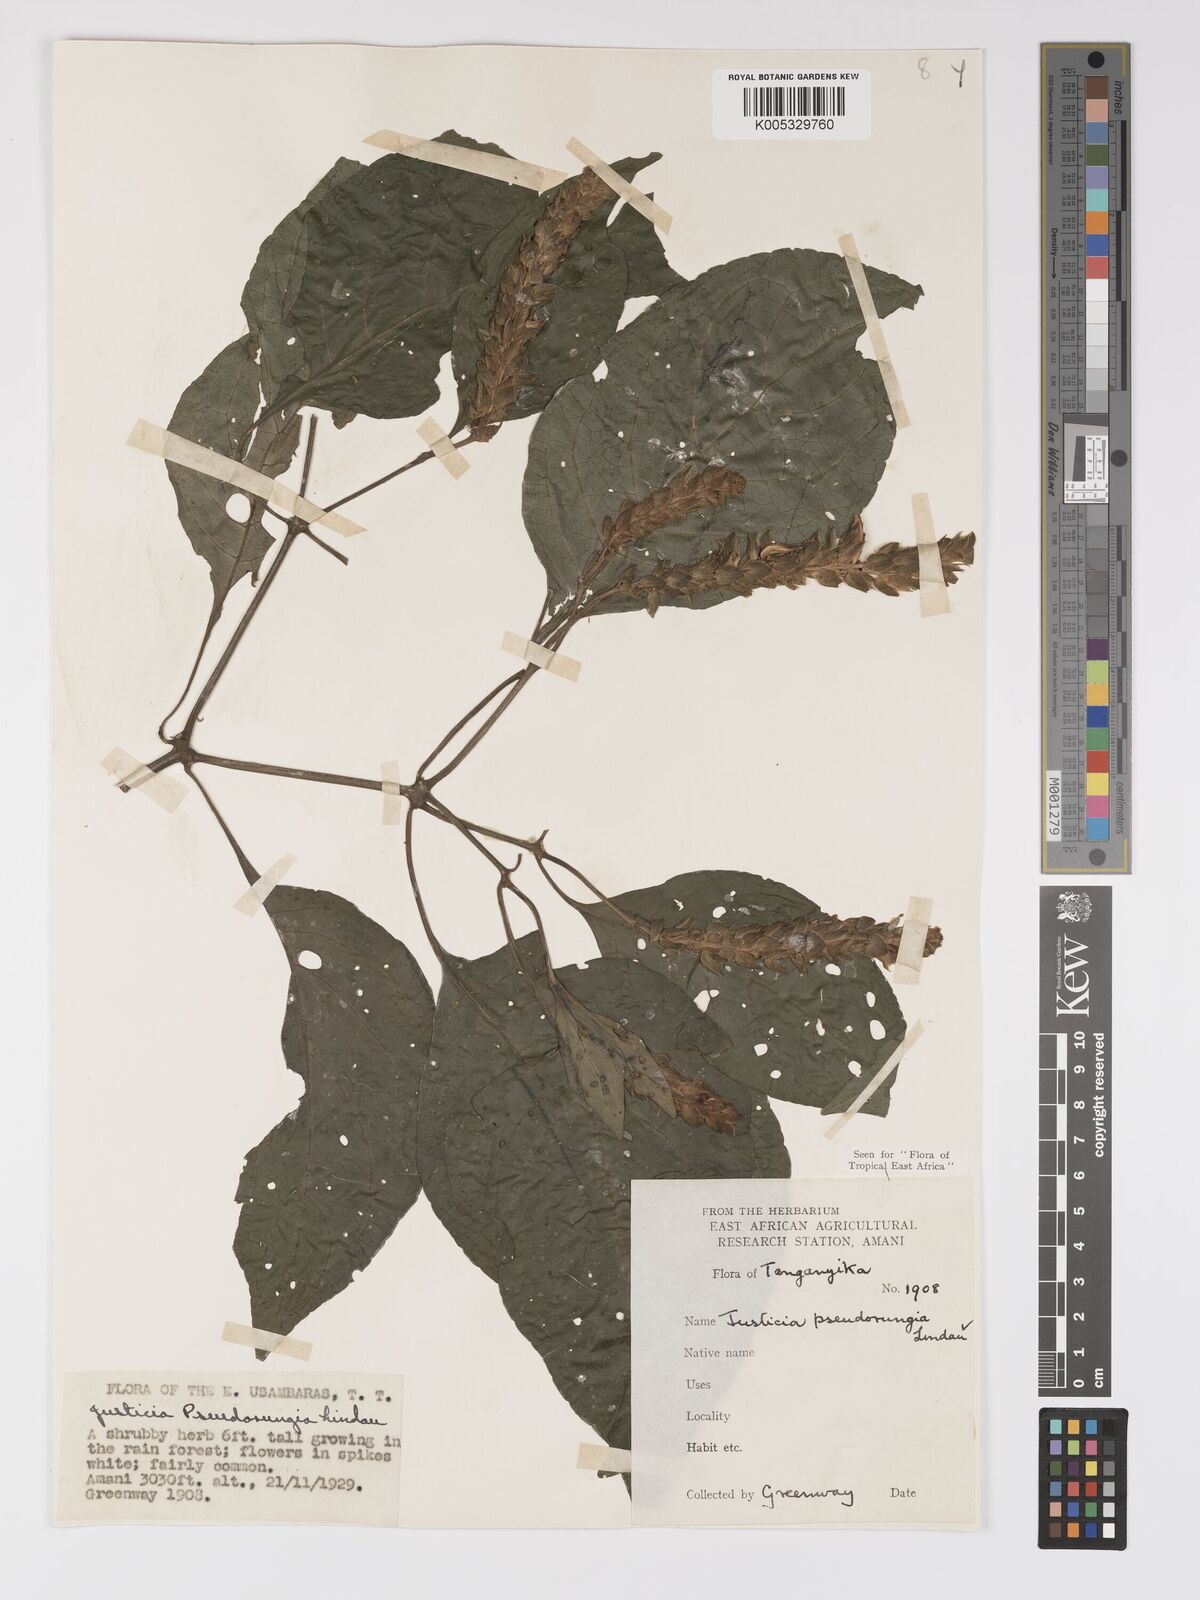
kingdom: Plantae
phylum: Tracheophyta
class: Magnoliopsida
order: Lamiales
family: Acanthaceae
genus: Justicia
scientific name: Justicia pseudorungia
